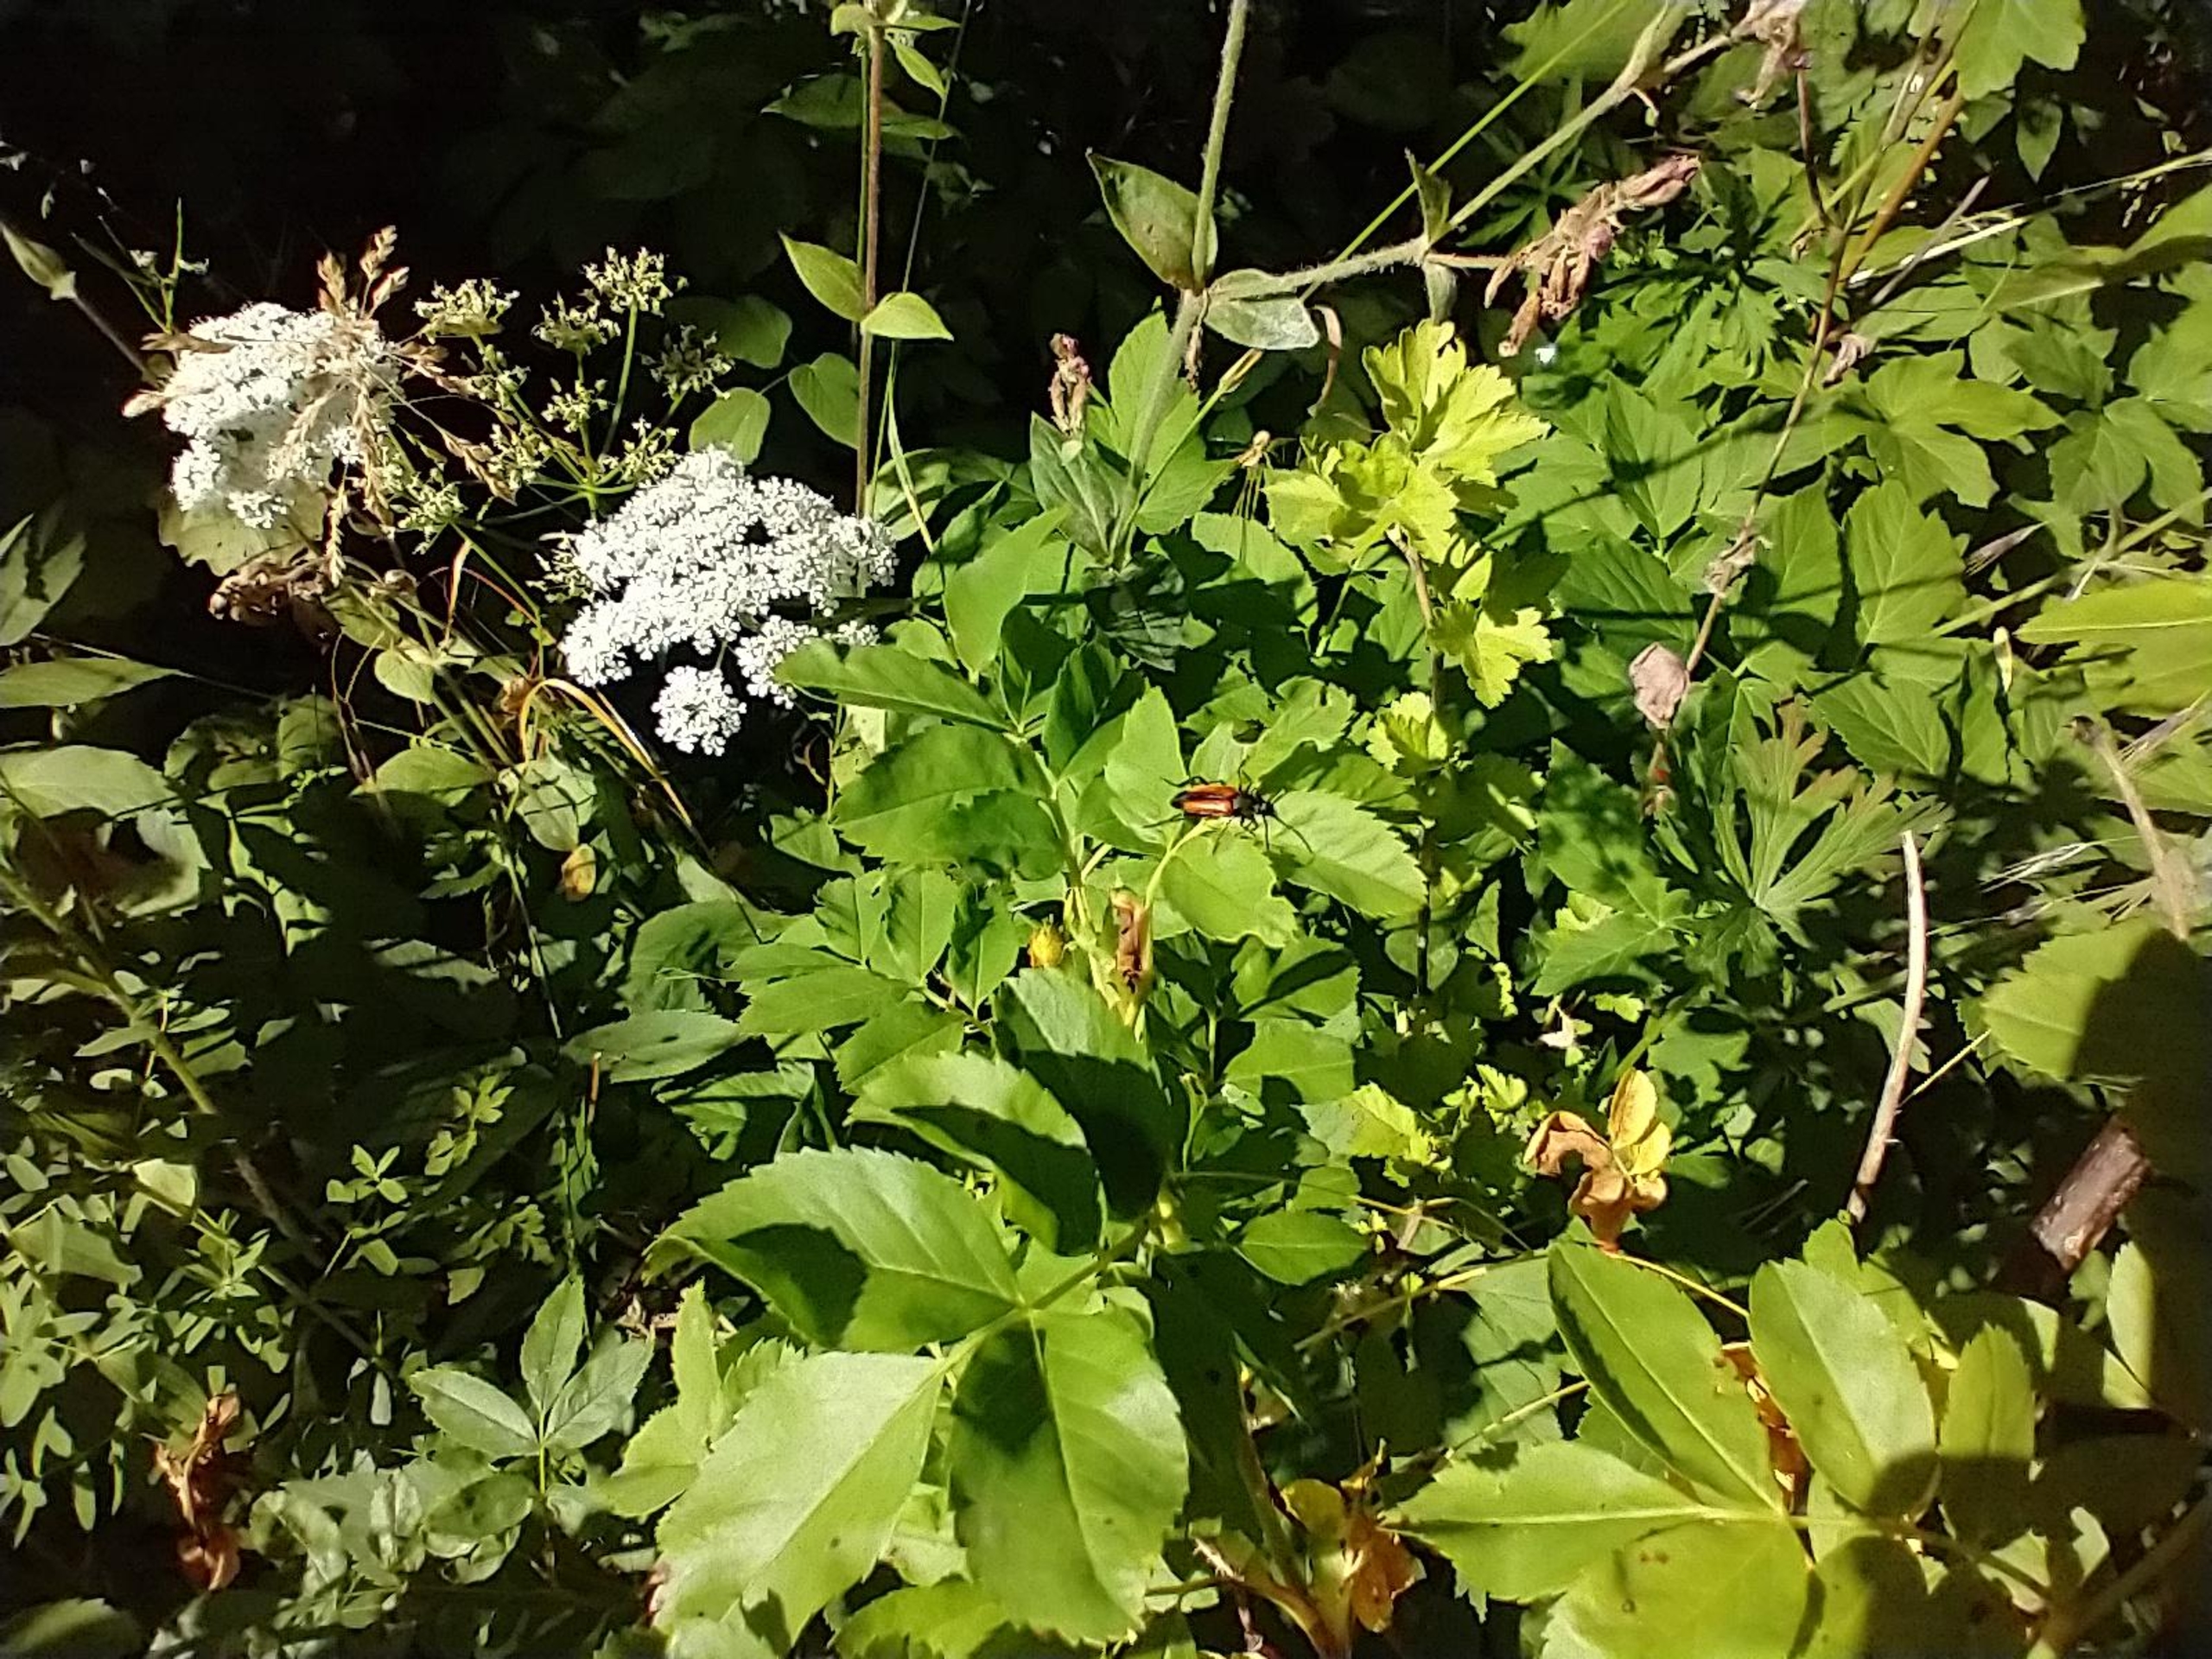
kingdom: Animalia
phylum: Arthropoda
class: Insecta
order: Coleoptera
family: Cerambycidae
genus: Stenurella
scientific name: Stenurella melanura
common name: Sortsømmet blomsterbuk
